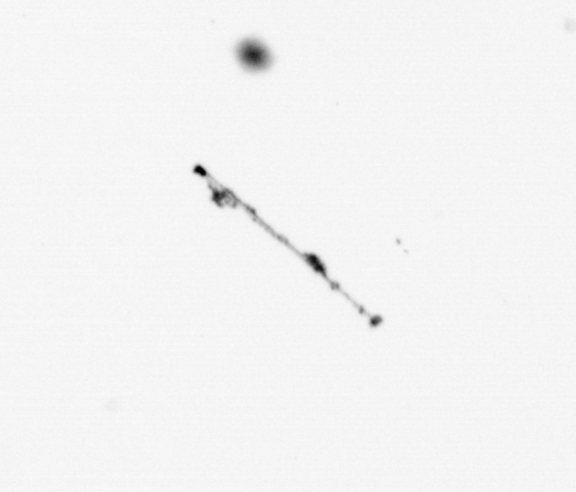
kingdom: Chromista
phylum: Ochrophyta
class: Bacillariophyceae
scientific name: Bacillariophyceae
